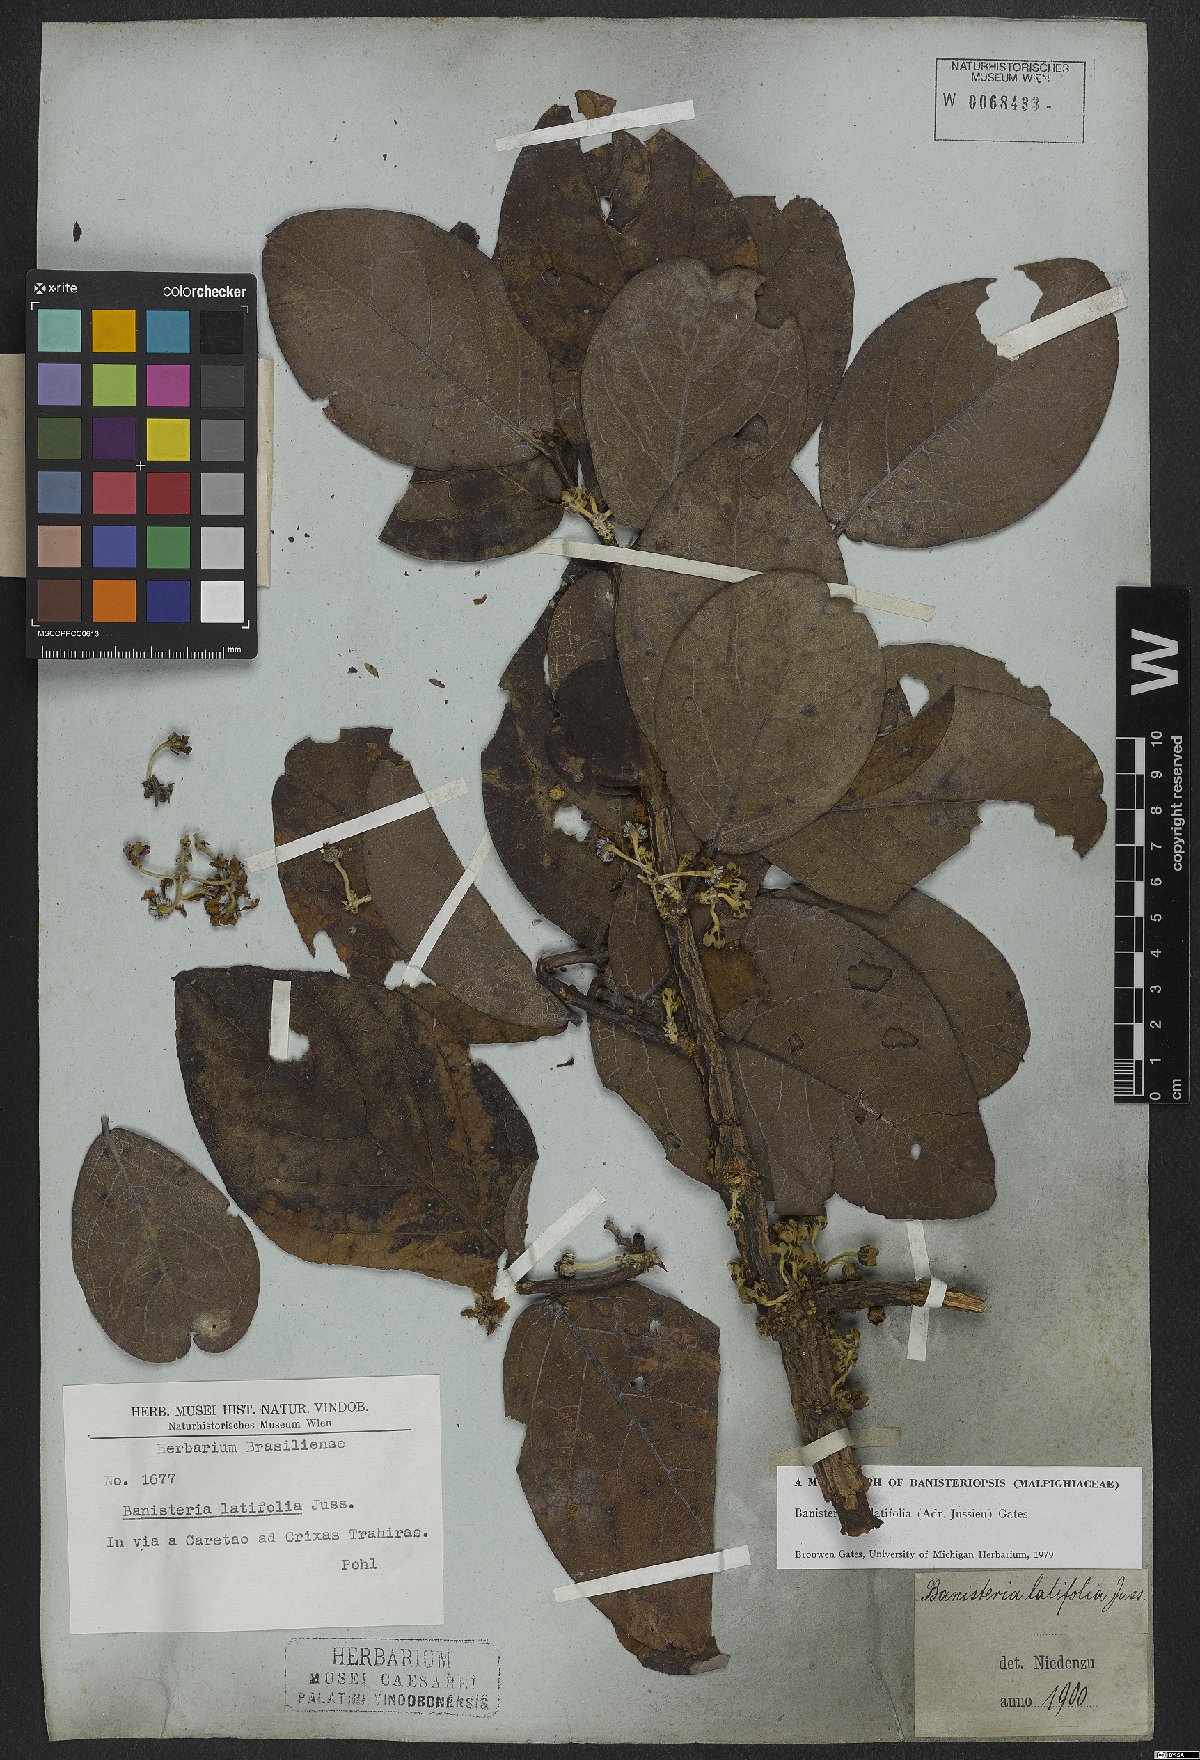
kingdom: Plantae
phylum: Tracheophyta
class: Magnoliopsida
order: Malpighiales
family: Malpighiaceae
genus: Banisteriopsis
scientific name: Banisteriopsis latifolia
